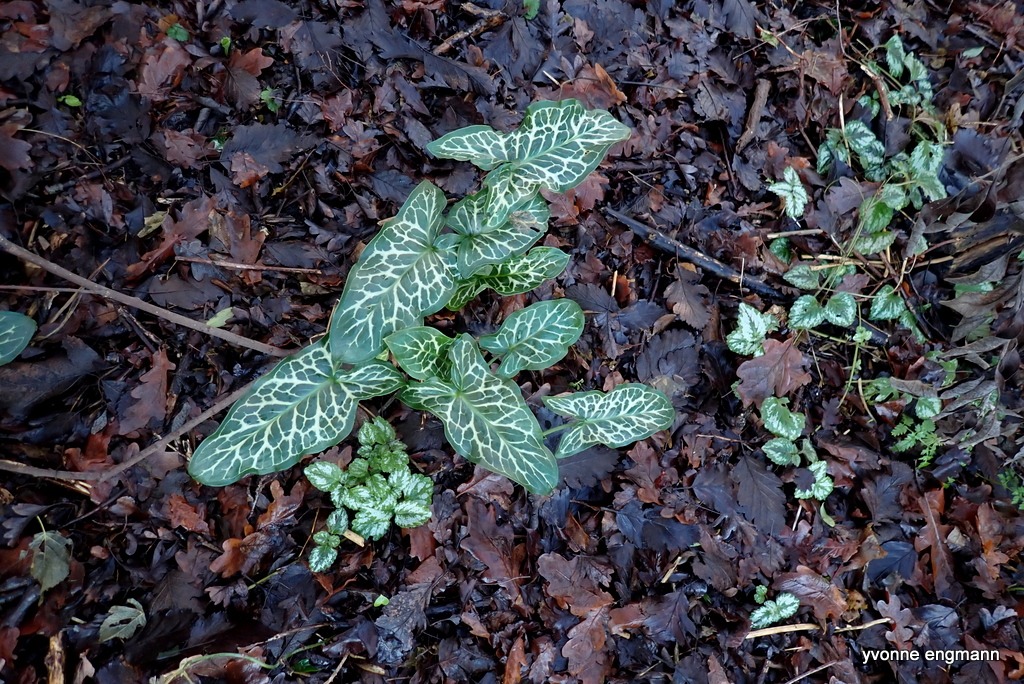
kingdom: Plantae
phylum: Tracheophyta
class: Liliopsida
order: Alismatales
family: Araceae
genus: Arum
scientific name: Arum italicum
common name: Italiensk arum
